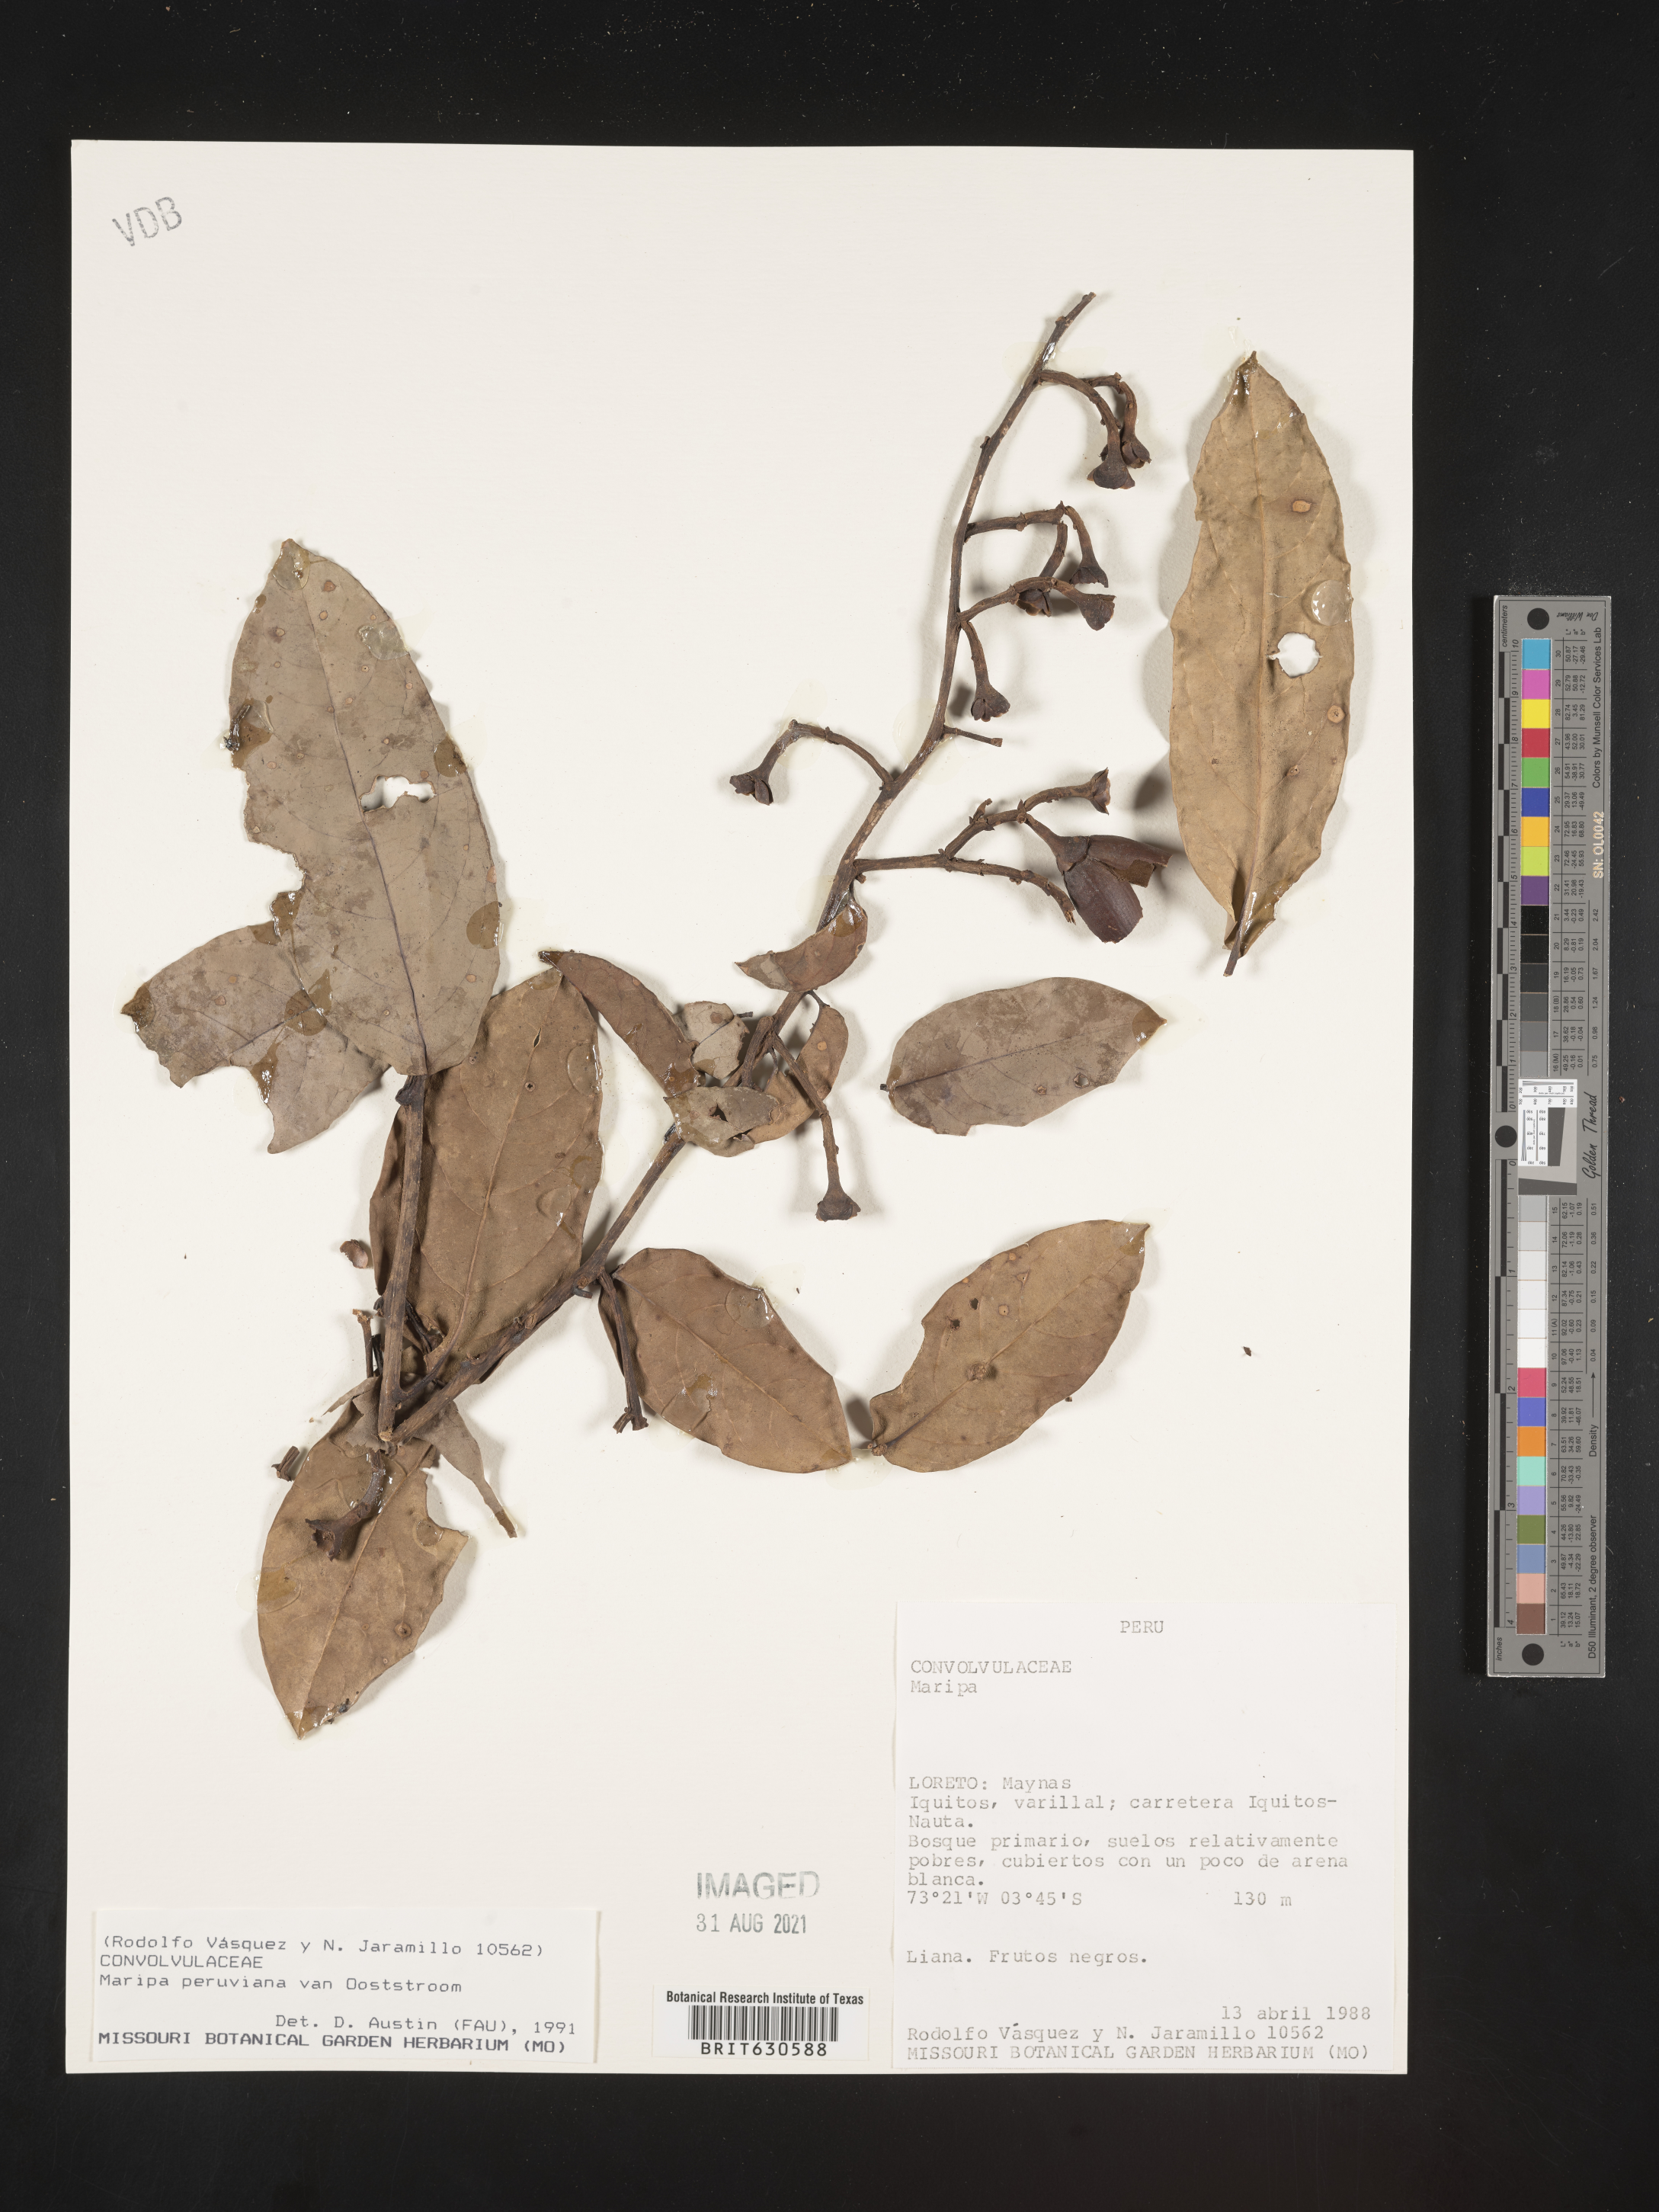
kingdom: Plantae
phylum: Tracheophyta
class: Magnoliopsida
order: Solanales
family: Convolvulaceae
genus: Maripa
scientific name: Maripa peruviana
